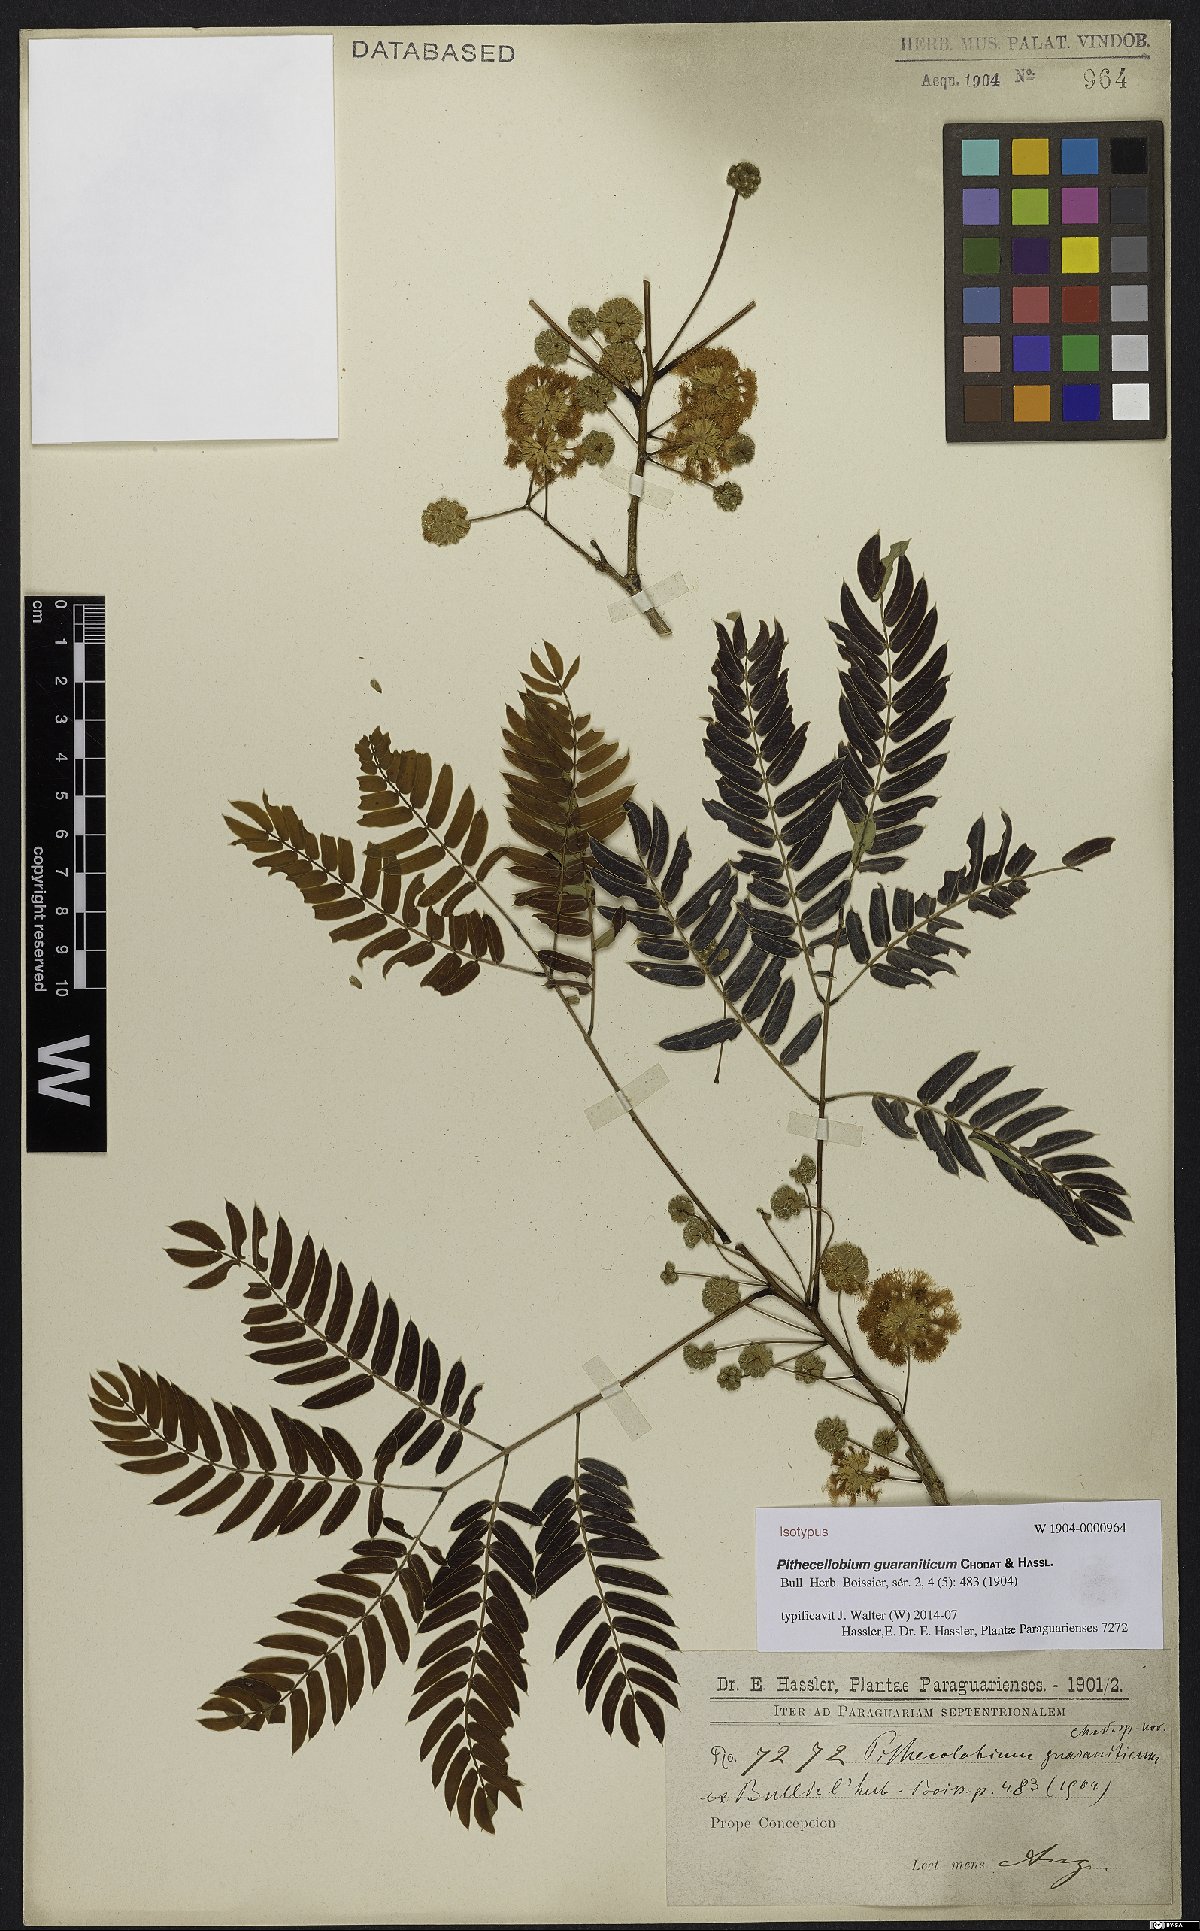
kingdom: Plantae
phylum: Tracheophyta
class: Magnoliopsida
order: Fabales
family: Fabaceae
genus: Enterolobium
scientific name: Enterolobium timbouva
